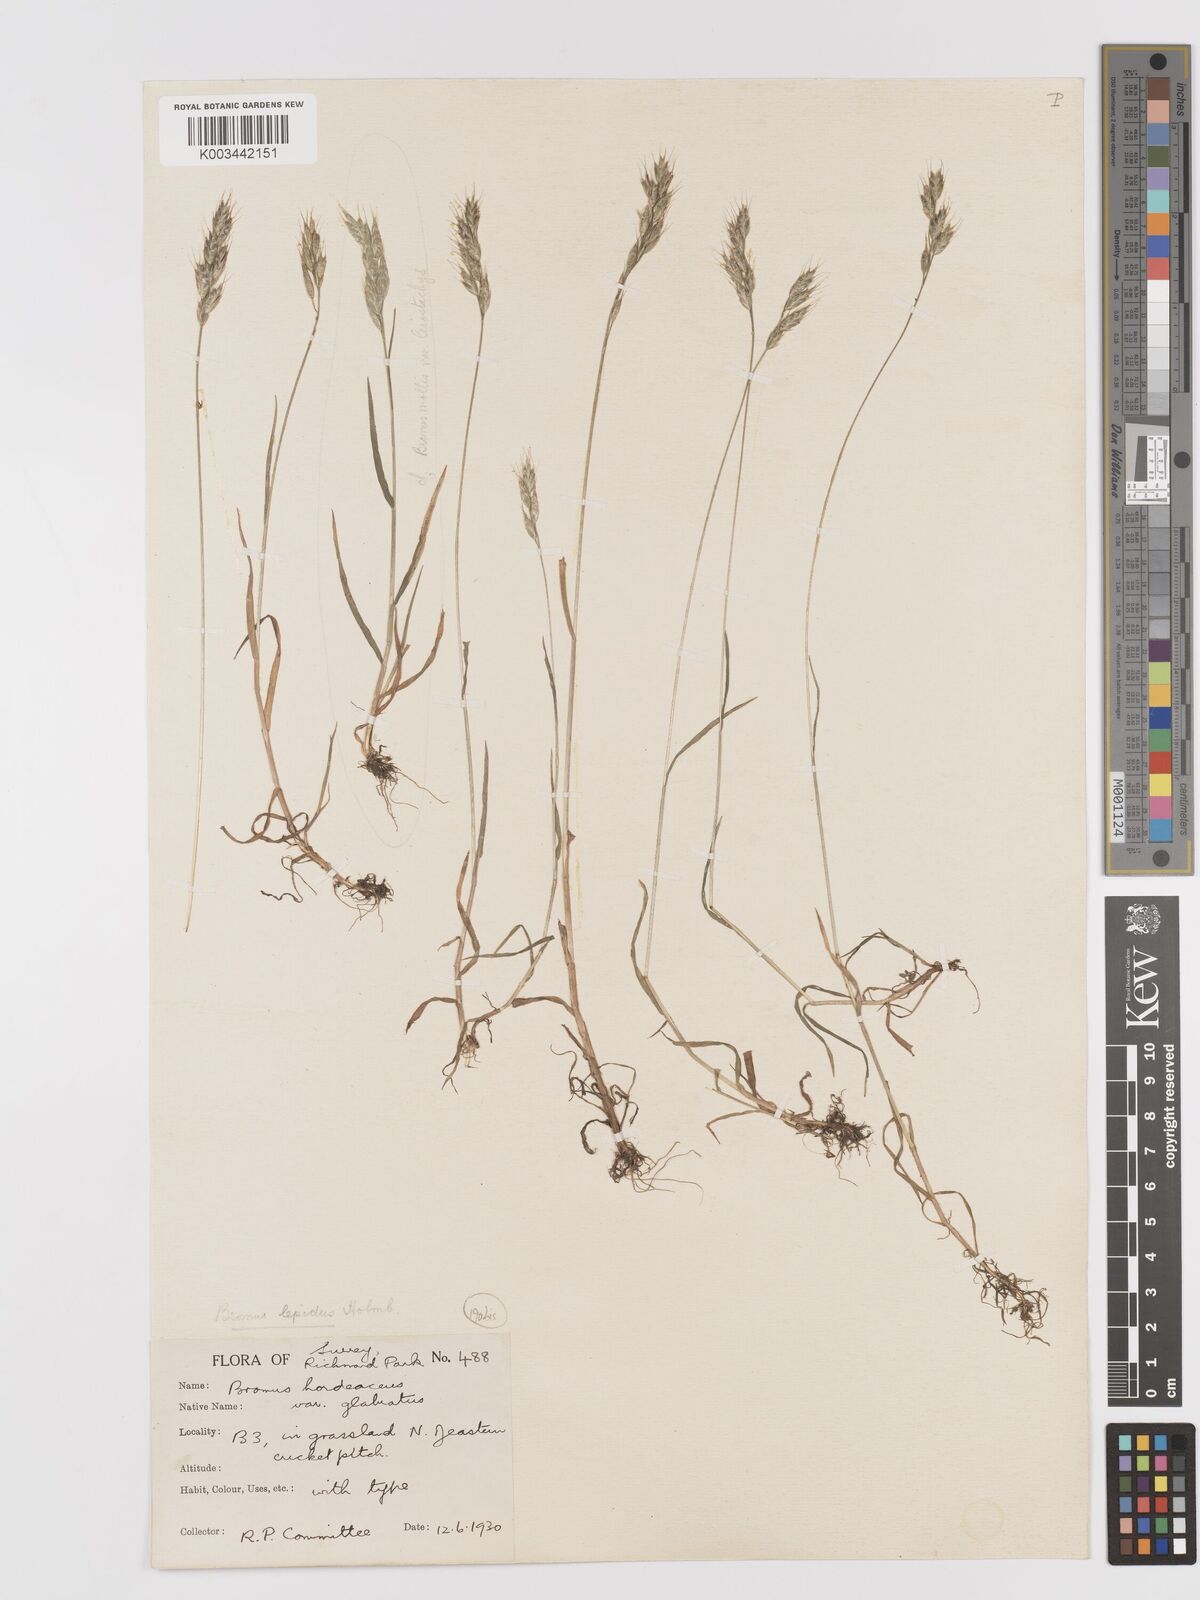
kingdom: Plantae
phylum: Tracheophyta
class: Liliopsida
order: Poales
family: Poaceae
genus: Bromus
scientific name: Bromus lepidus
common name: Slender soft-brome
